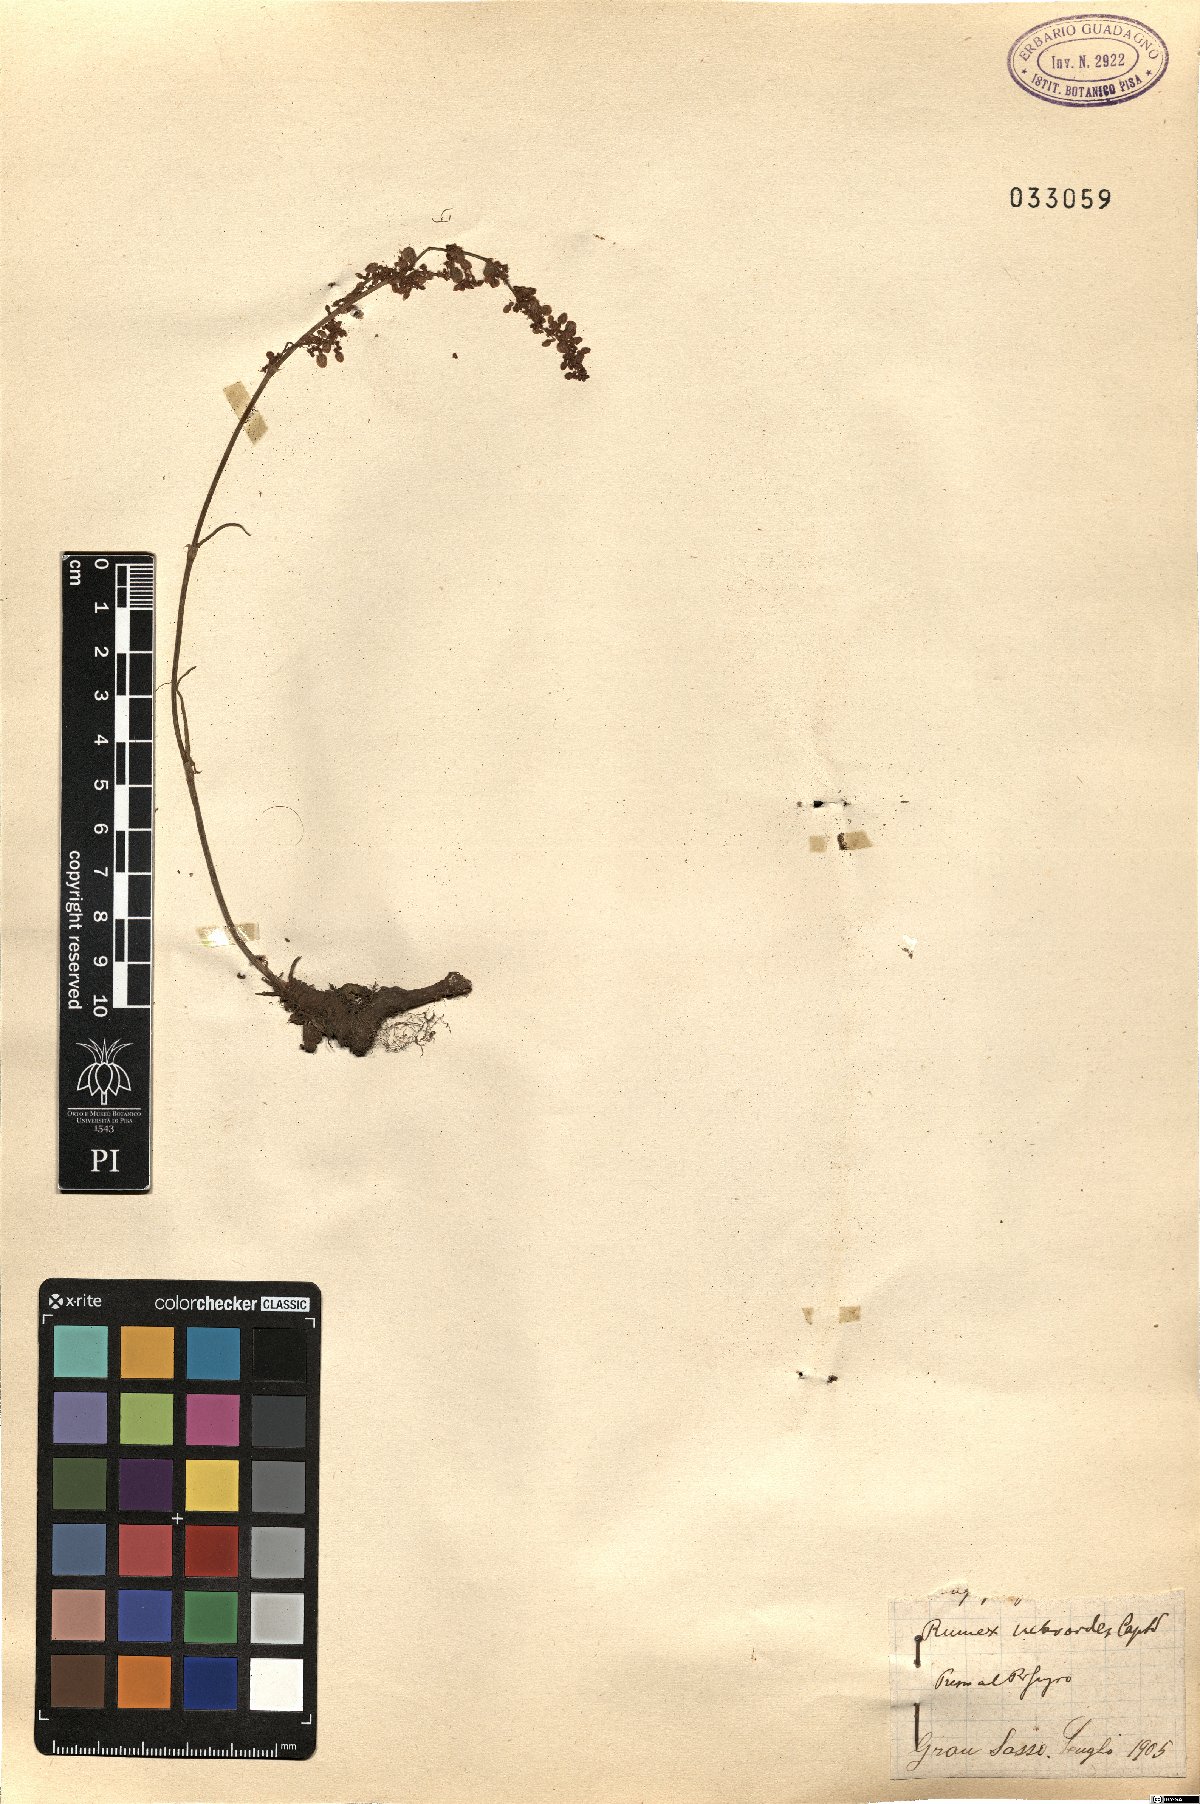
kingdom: Plantae
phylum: Tracheophyta
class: Magnoliopsida
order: Caryophyllales
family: Polygonaceae
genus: Rumex
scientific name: Rumex nebroides
